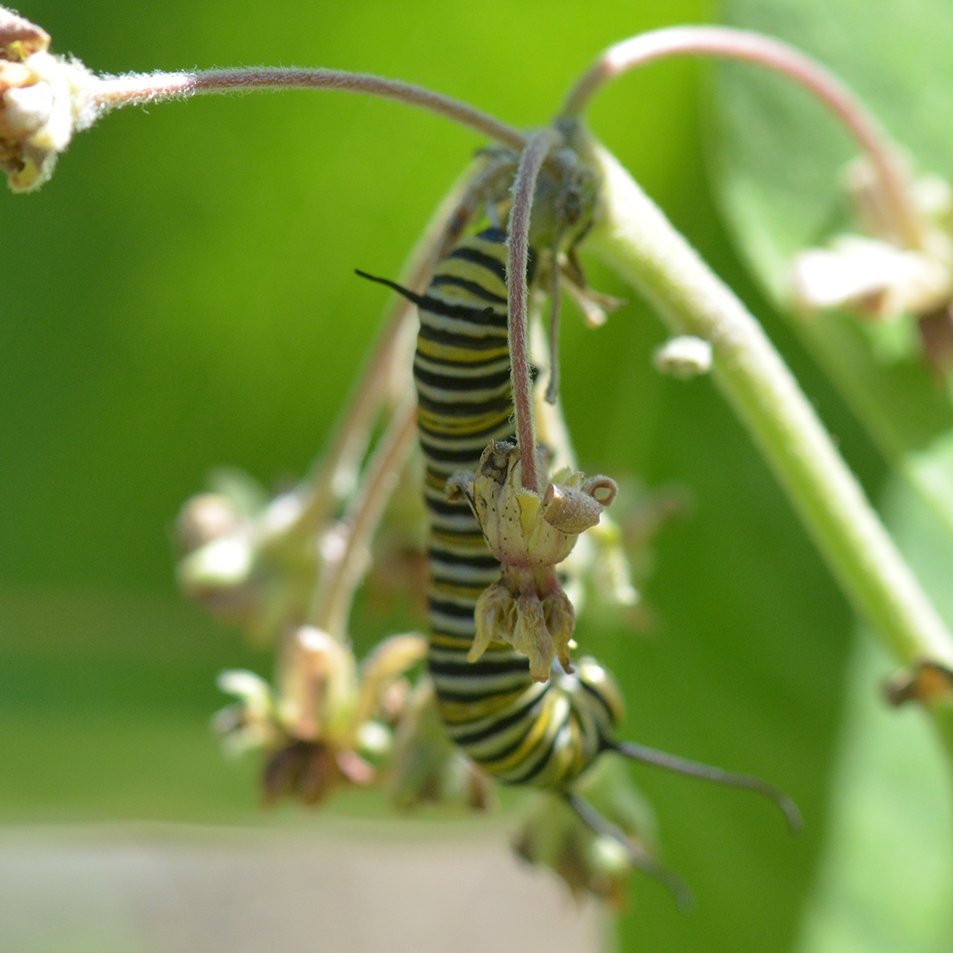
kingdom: Animalia
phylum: Arthropoda
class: Insecta
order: Lepidoptera
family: Nymphalidae
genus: Danaus
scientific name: Danaus plexippus
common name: Monarch
